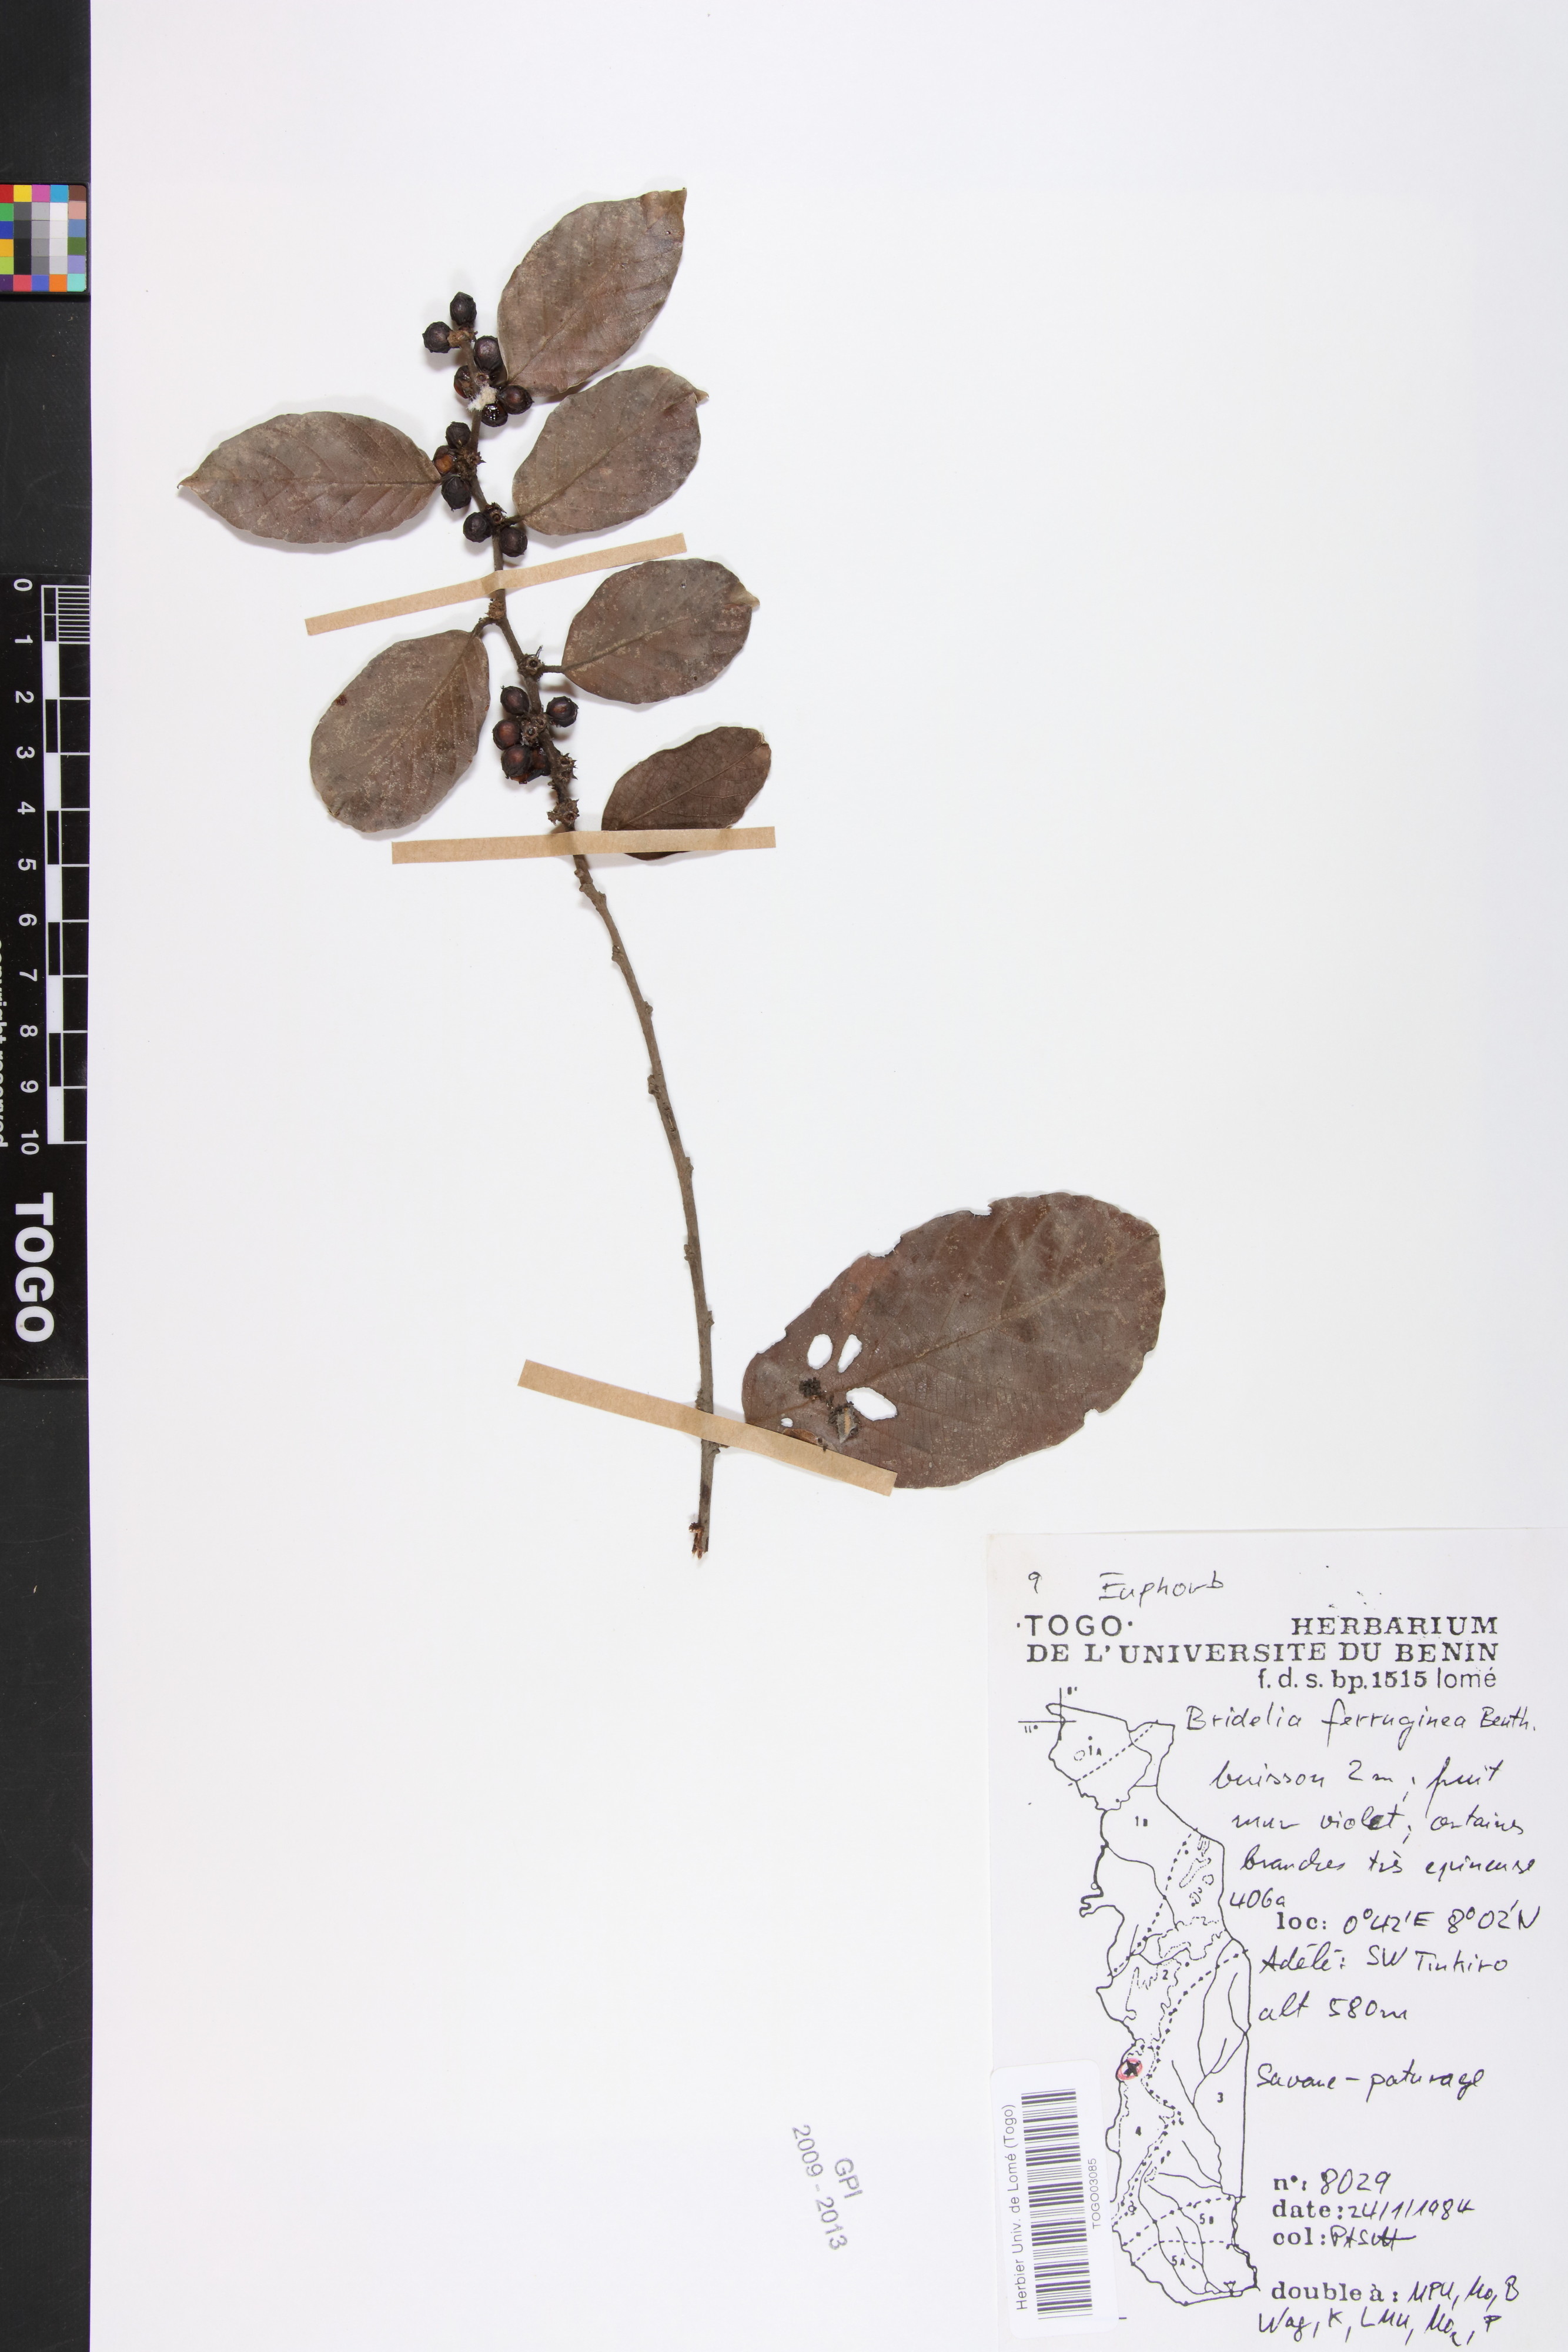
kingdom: Plantae
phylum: Tracheophyta
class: Magnoliopsida
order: Malpighiales
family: Phyllanthaceae
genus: Bridelia
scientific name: Bridelia ferruginea
